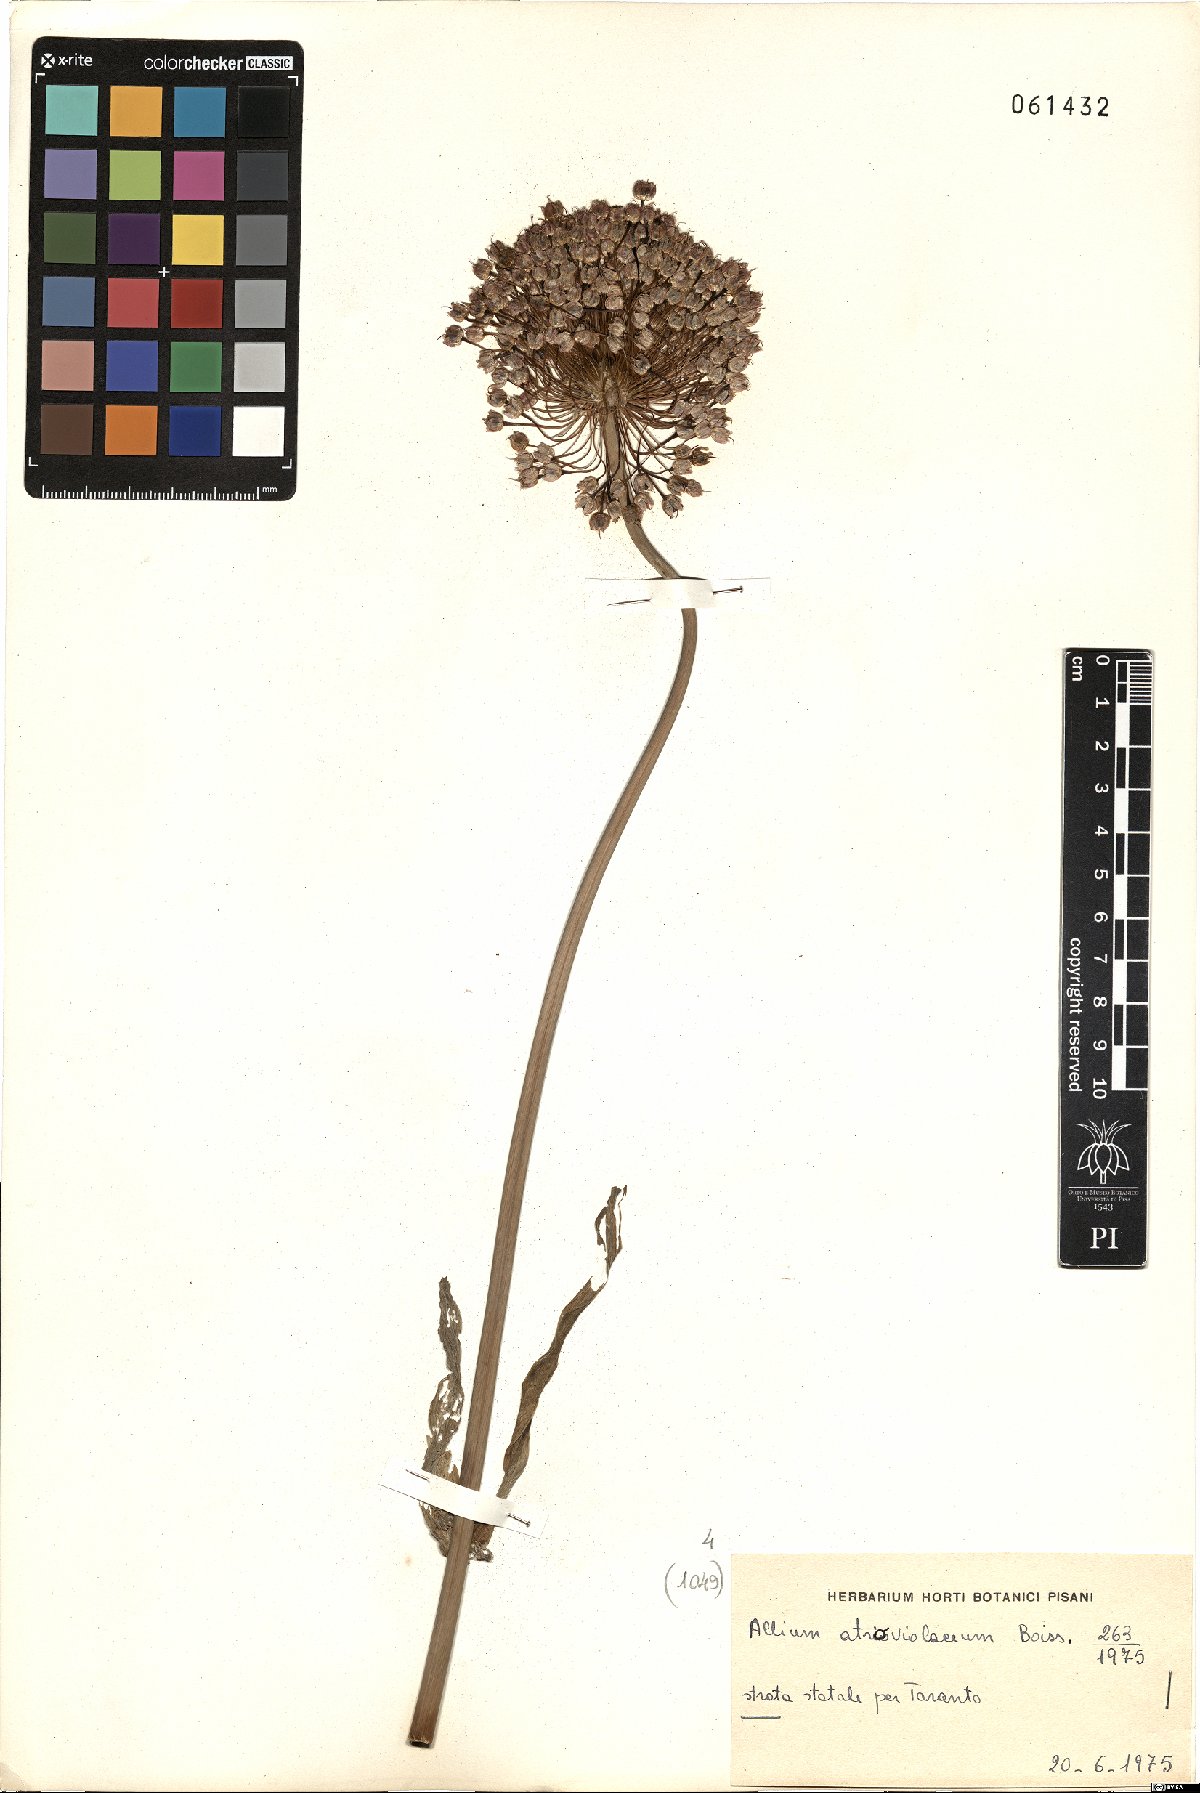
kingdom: Plantae
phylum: Tracheophyta
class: Liliopsida
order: Asparagales
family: Amaryllidaceae
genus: Allium
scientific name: Allium atroviolaceum
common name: Broadleaf wild leek
